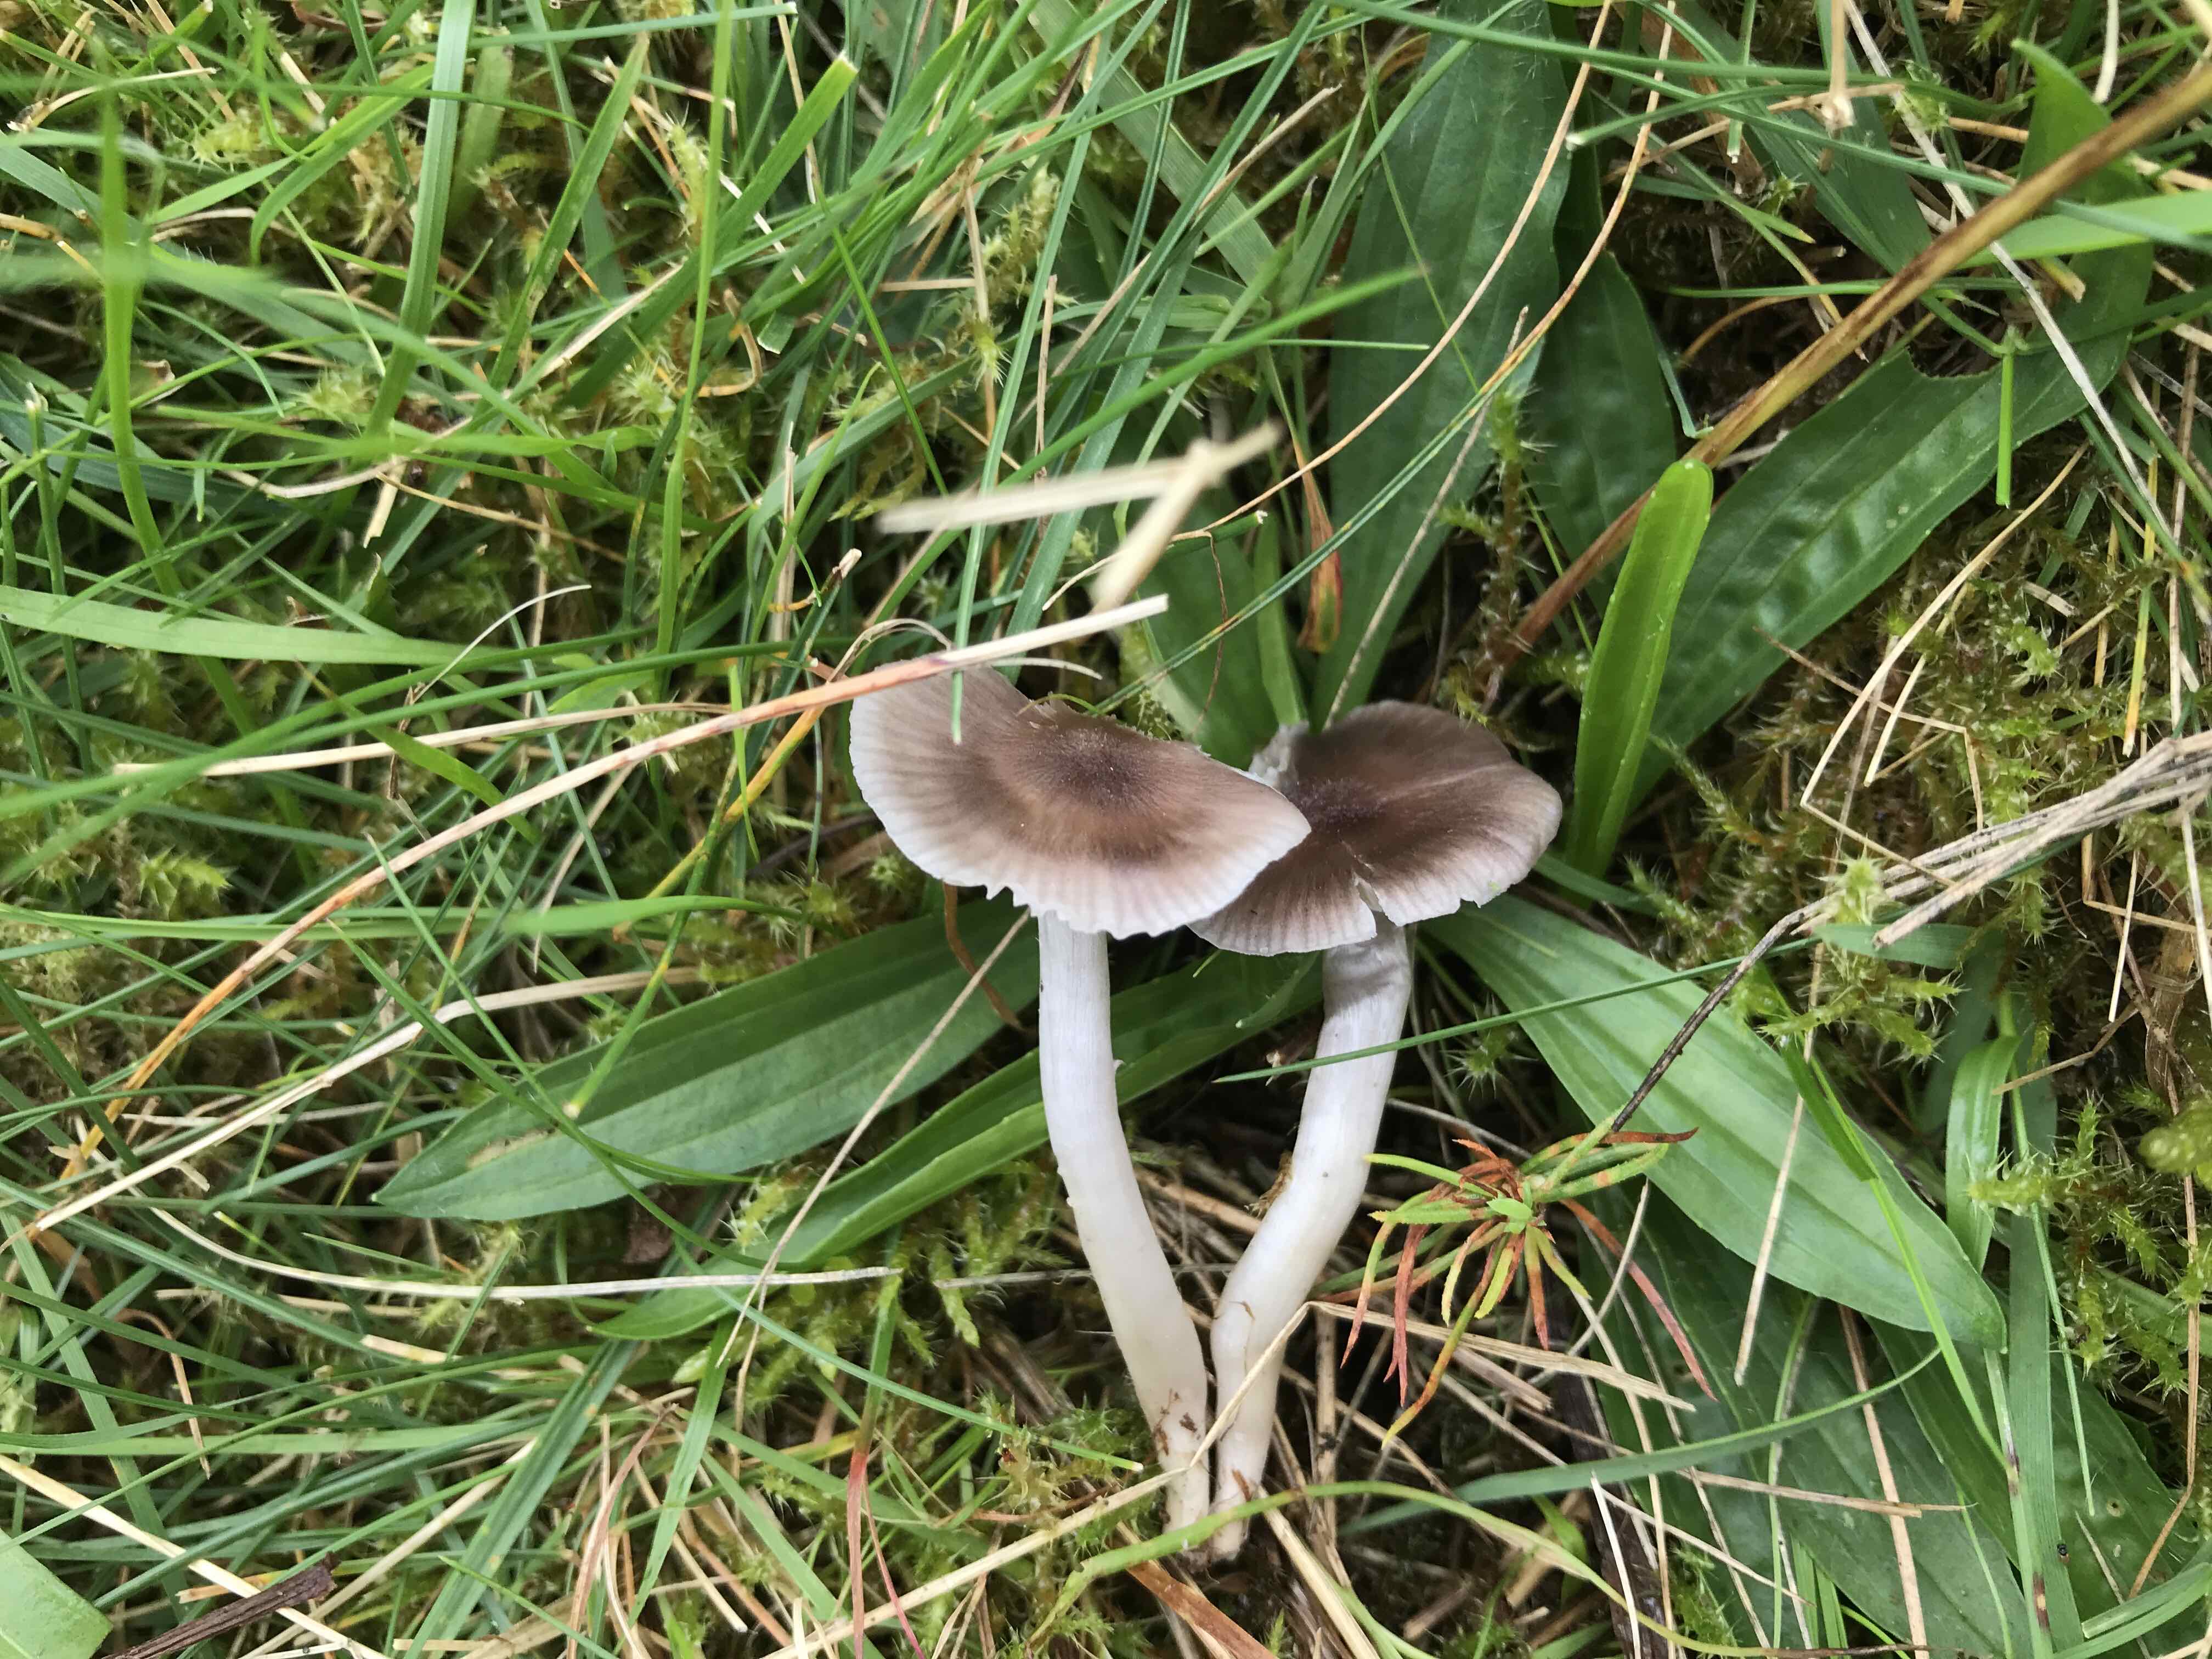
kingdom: Fungi
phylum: Basidiomycota
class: Agaricomycetes
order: Agaricales
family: Hygrophoraceae
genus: Cuphophyllus
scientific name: Cuphophyllus
